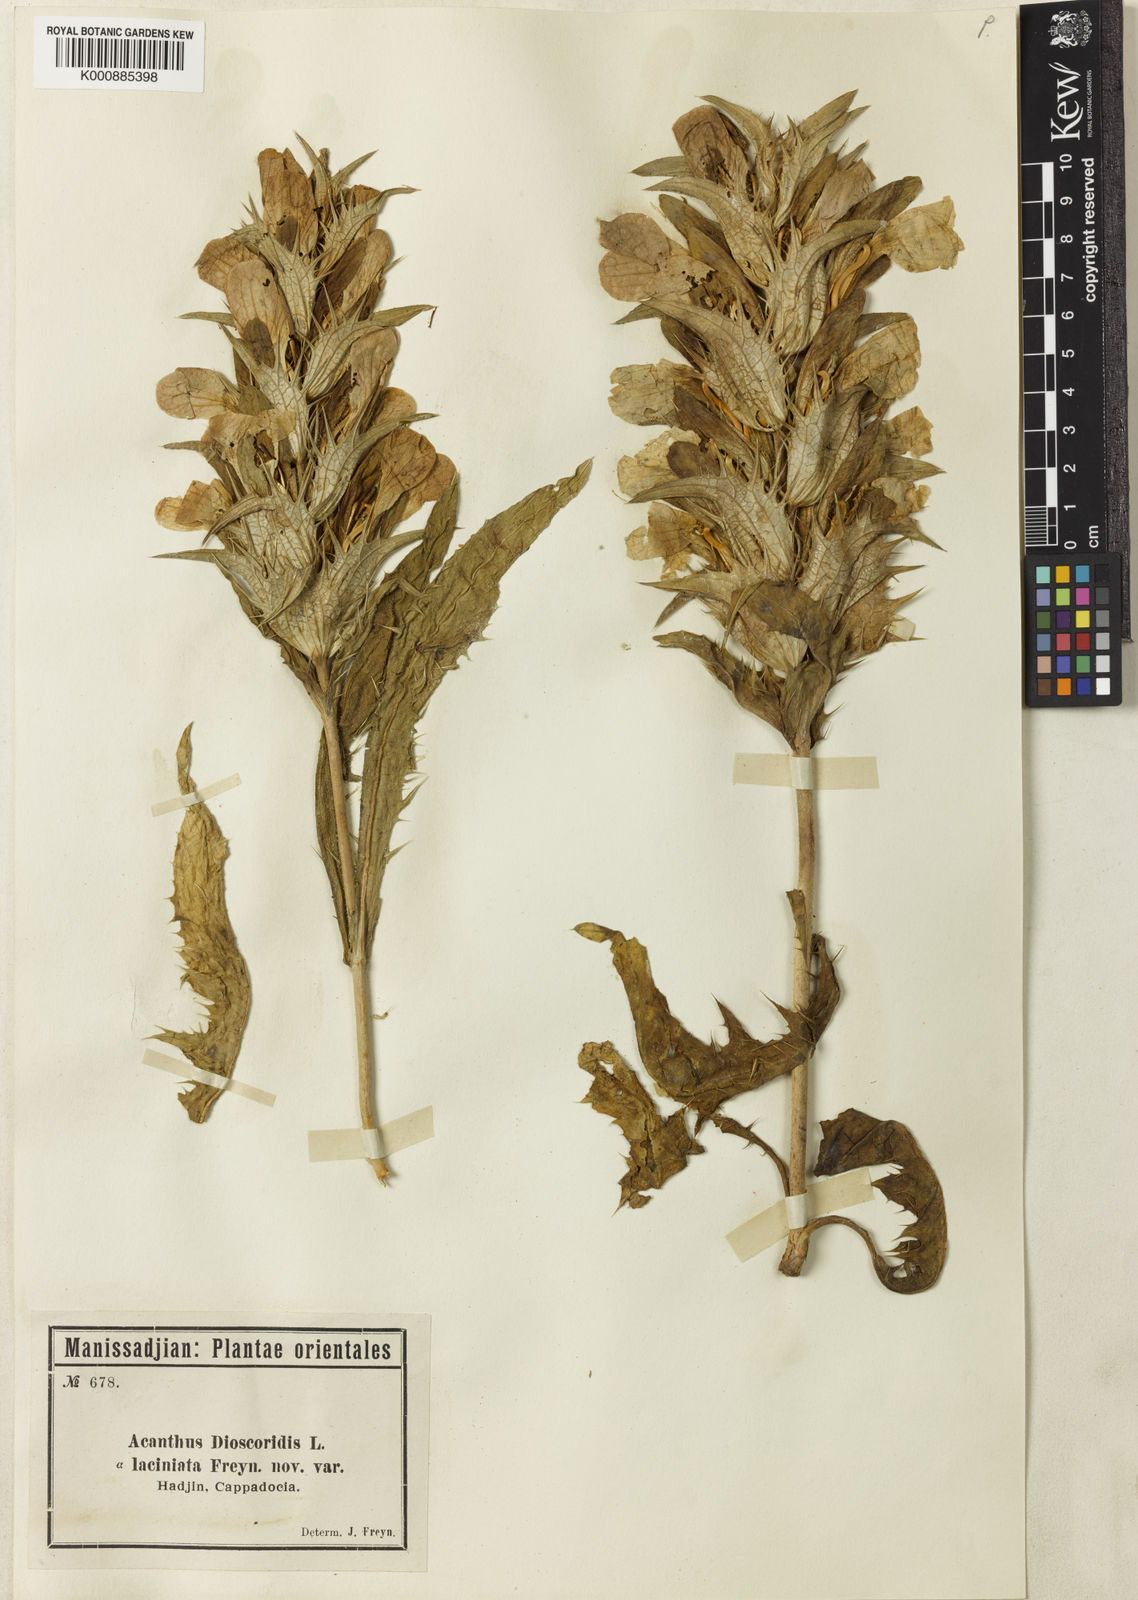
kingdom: Plantae
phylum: Tracheophyta
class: Magnoliopsida
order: Lamiales
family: Acanthaceae
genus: Acanthus
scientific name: Acanthus dioscoridis
